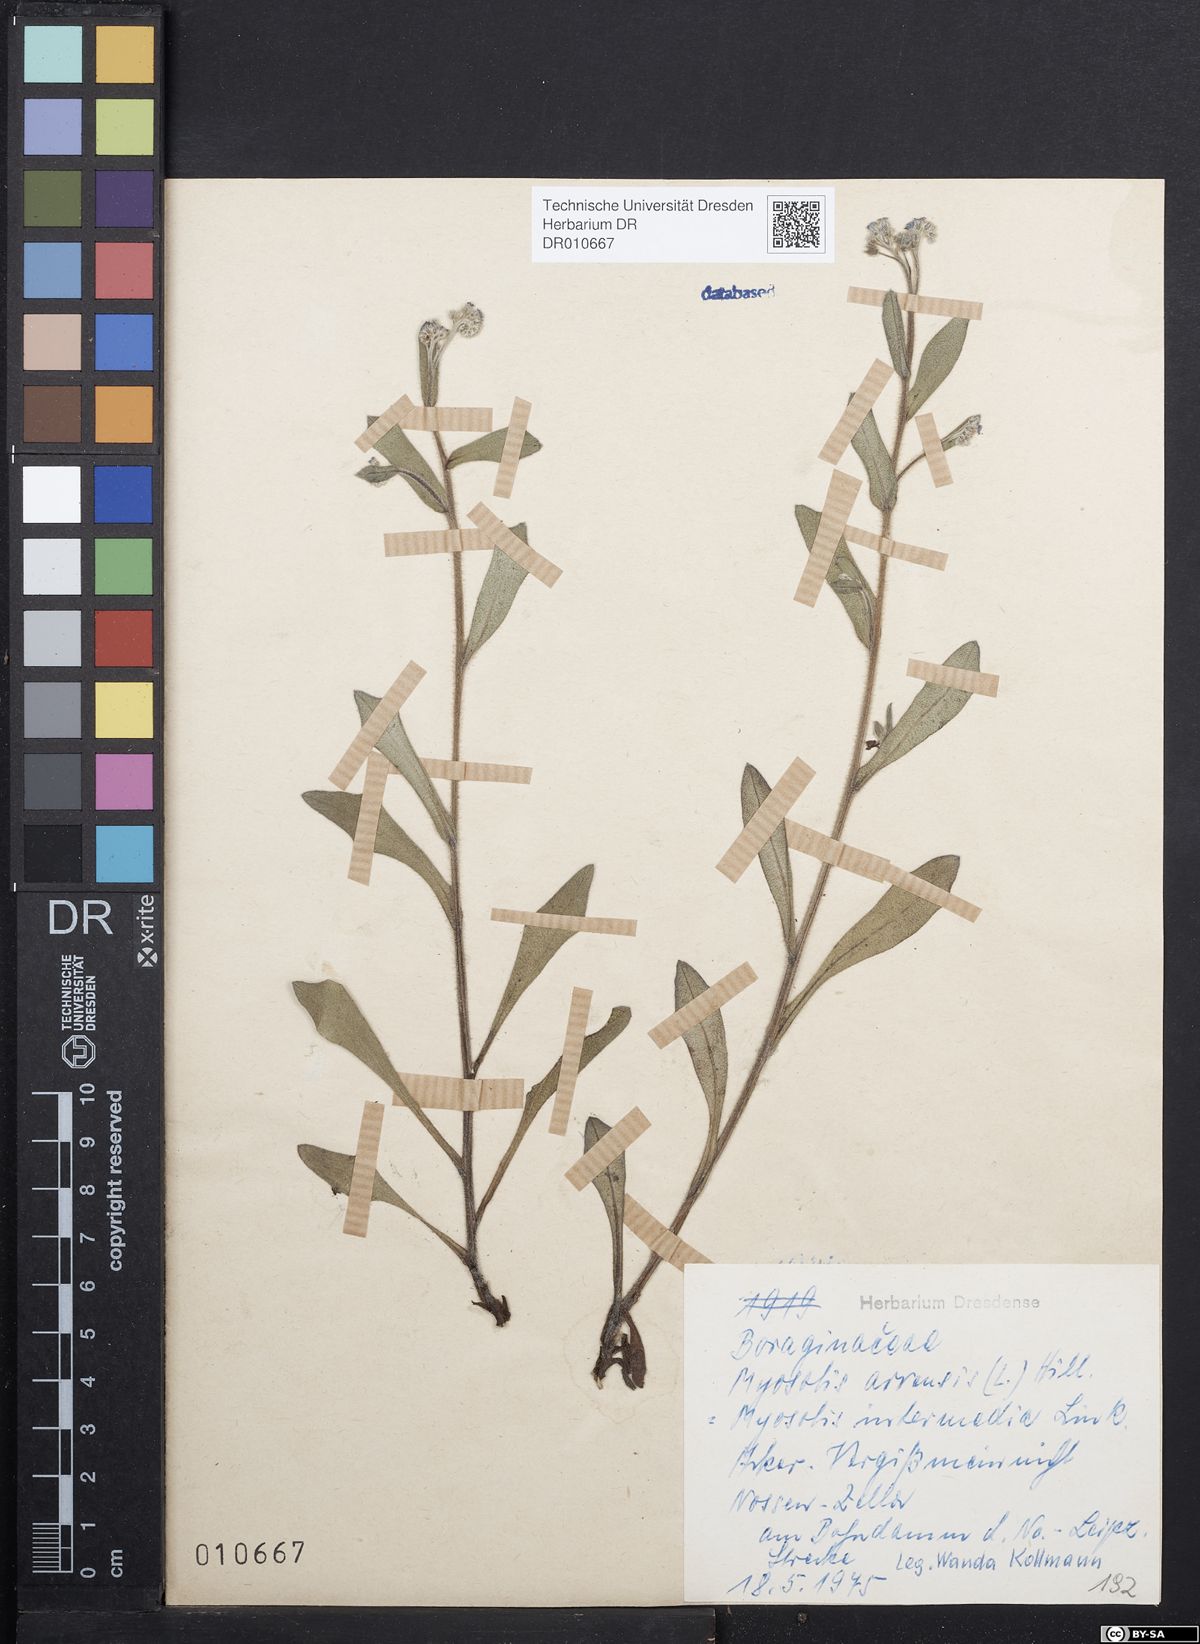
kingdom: Plantae
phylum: Tracheophyta
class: Magnoliopsida
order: Boraginales
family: Boraginaceae
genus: Myosotis
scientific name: Myosotis arvensis
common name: Field forget-me-not
